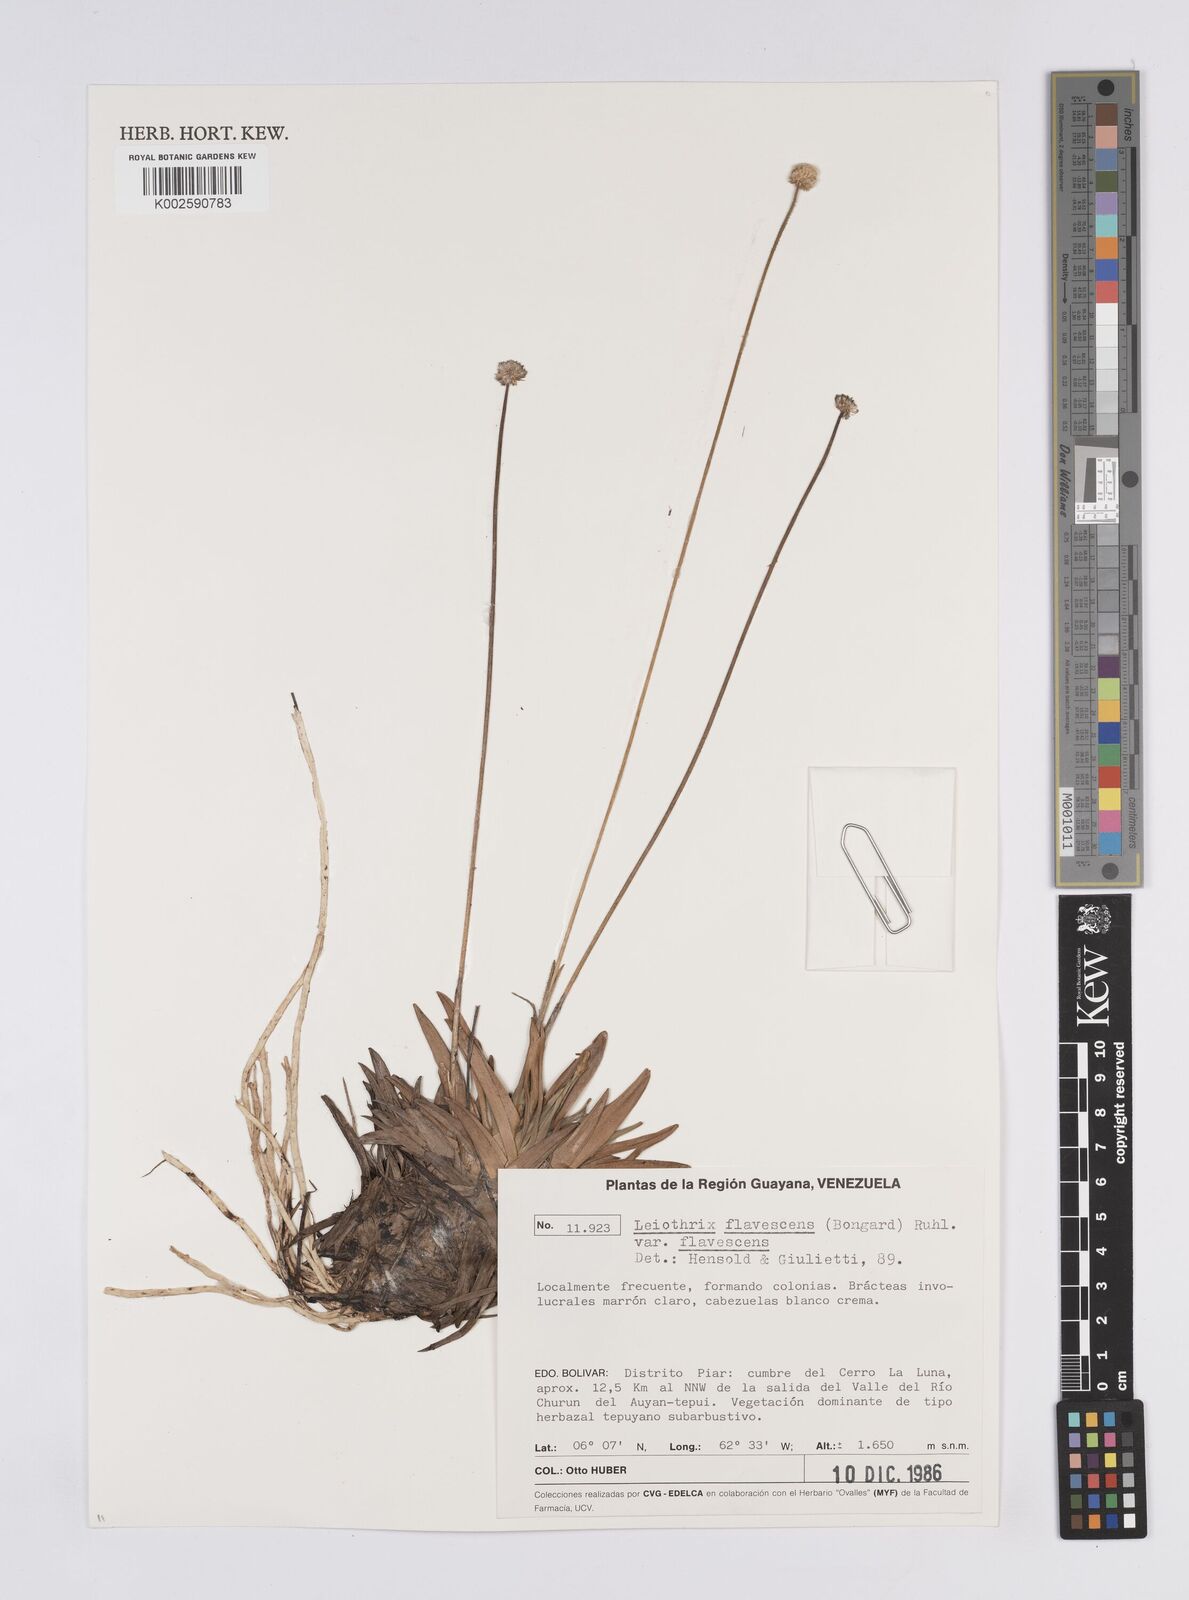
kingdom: Plantae
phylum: Tracheophyta
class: Liliopsida
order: Poales
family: Eriocaulaceae
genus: Leiothrix
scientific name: Leiothrix flavescens
